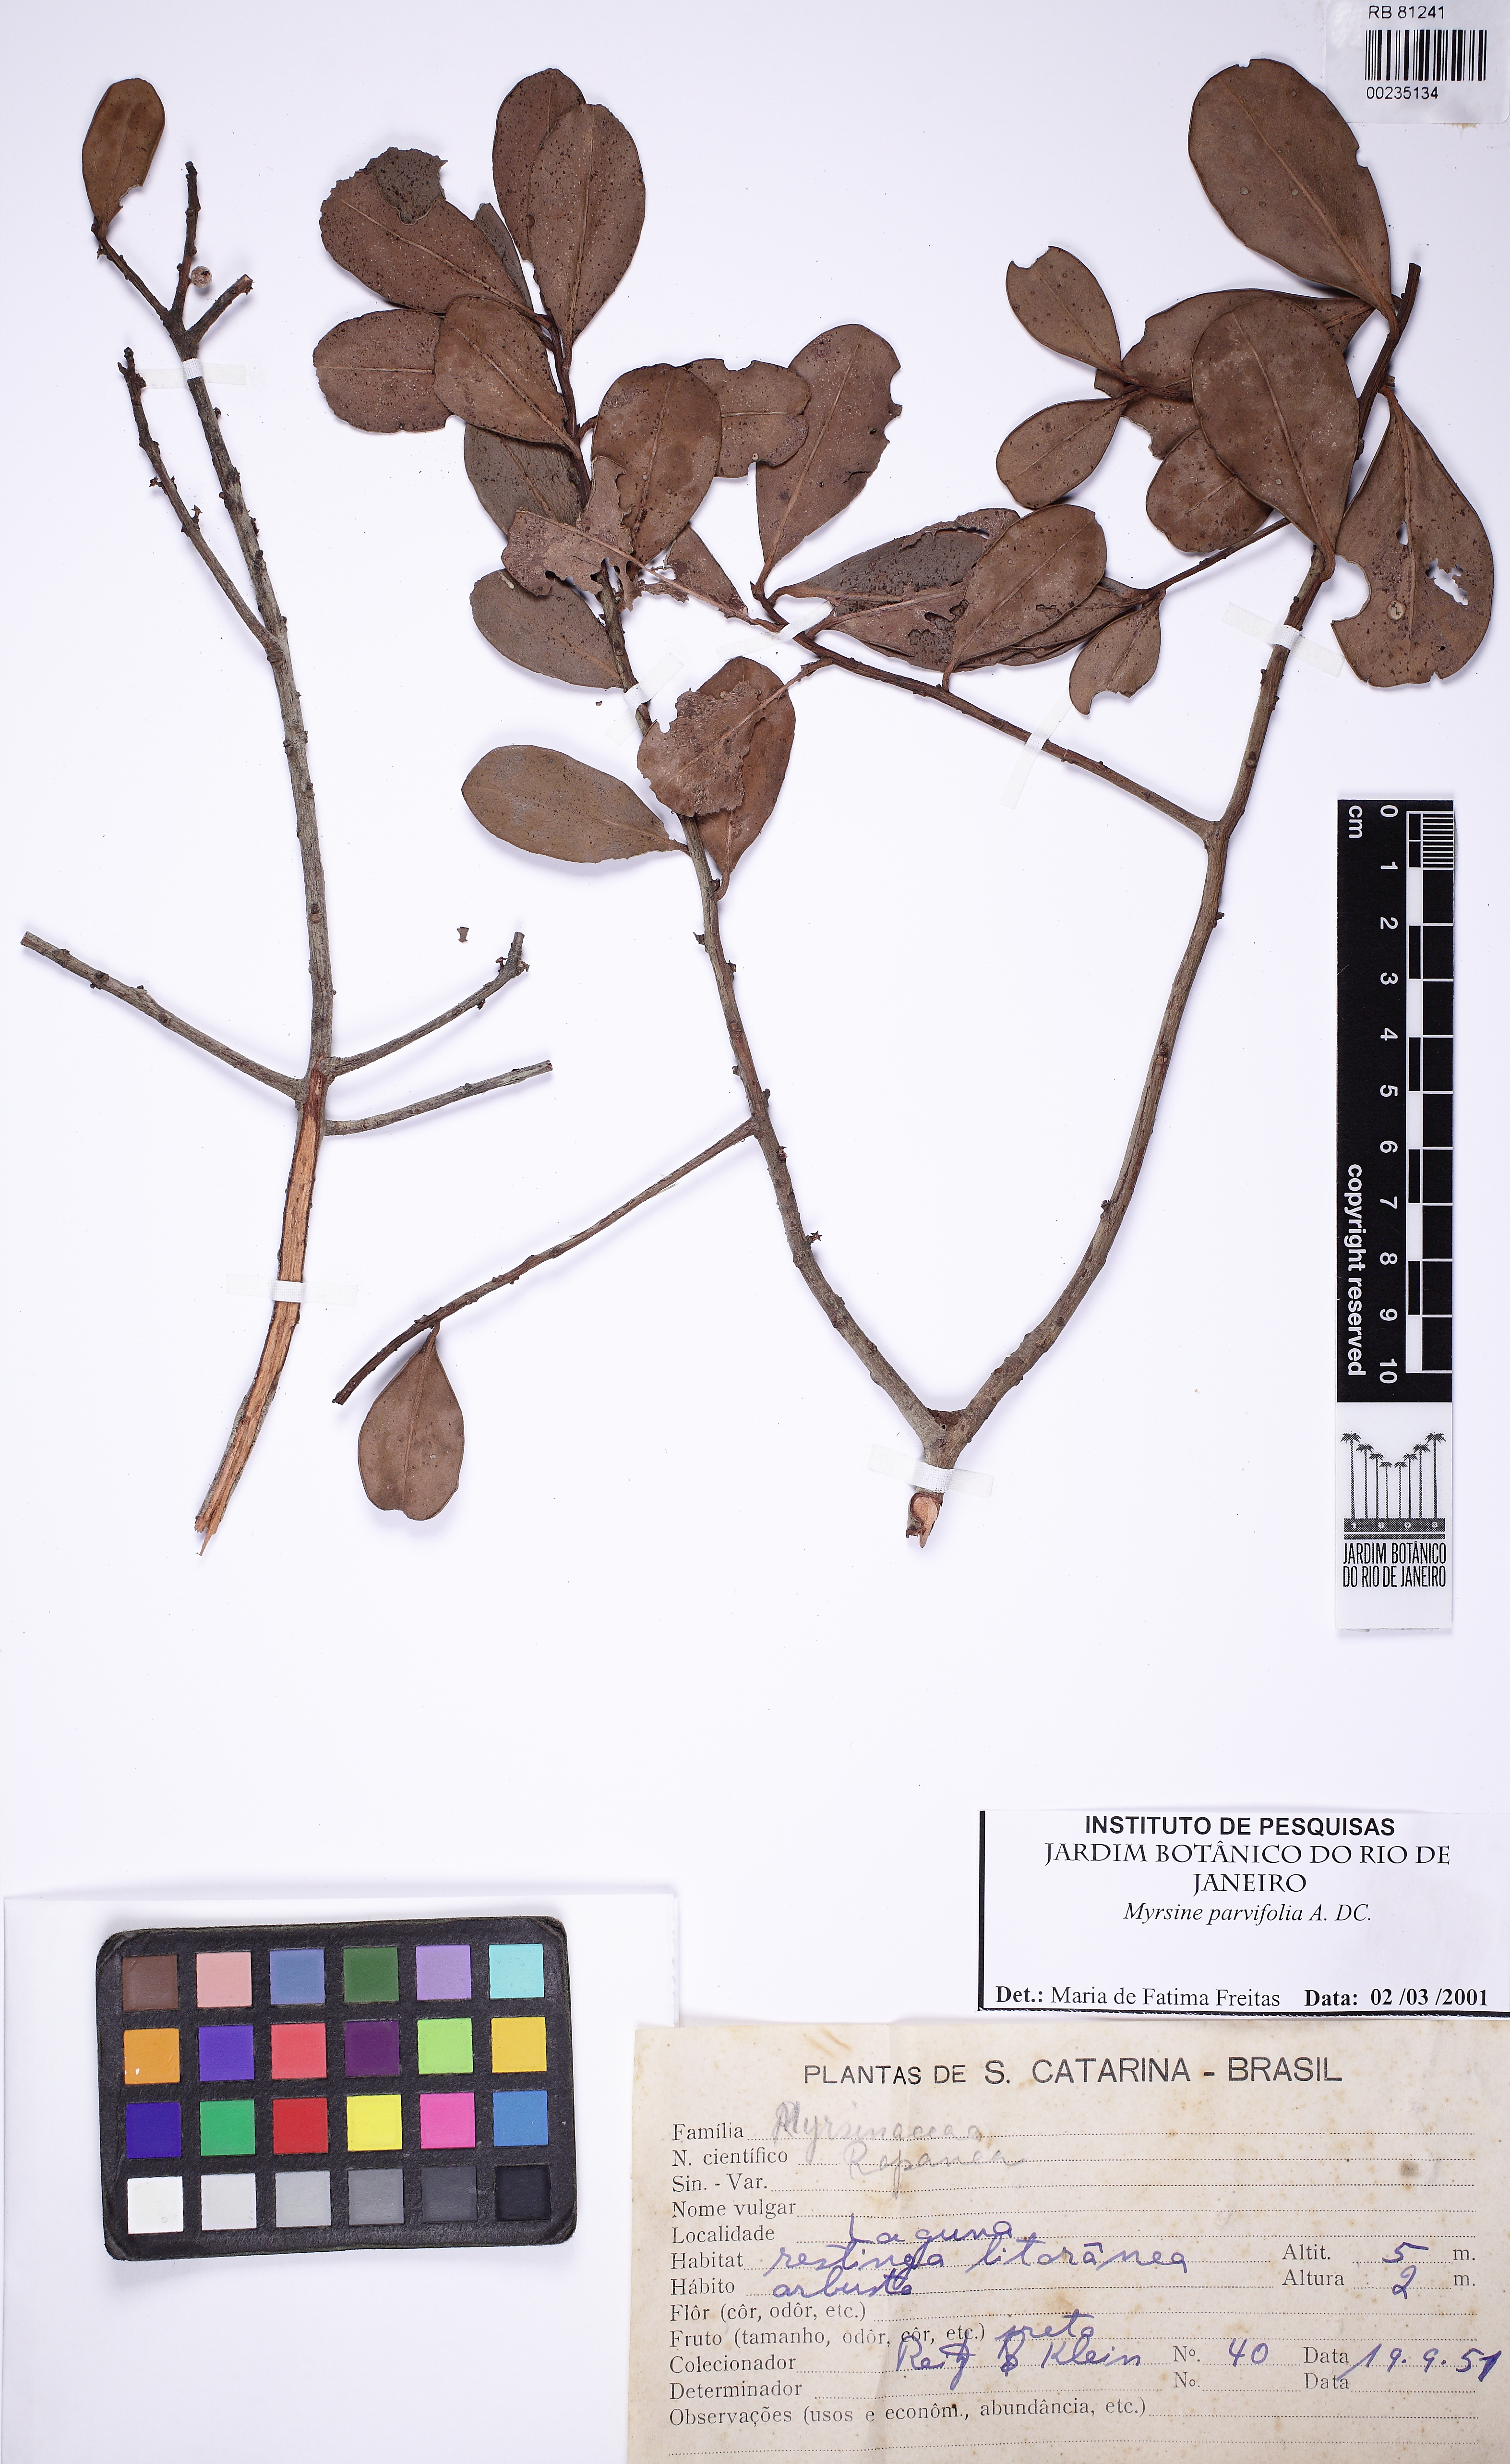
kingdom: Plantae
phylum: Tracheophyta
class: Magnoliopsida
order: Ericales
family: Primulaceae
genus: Myrsine
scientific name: Myrsine parvifolia
